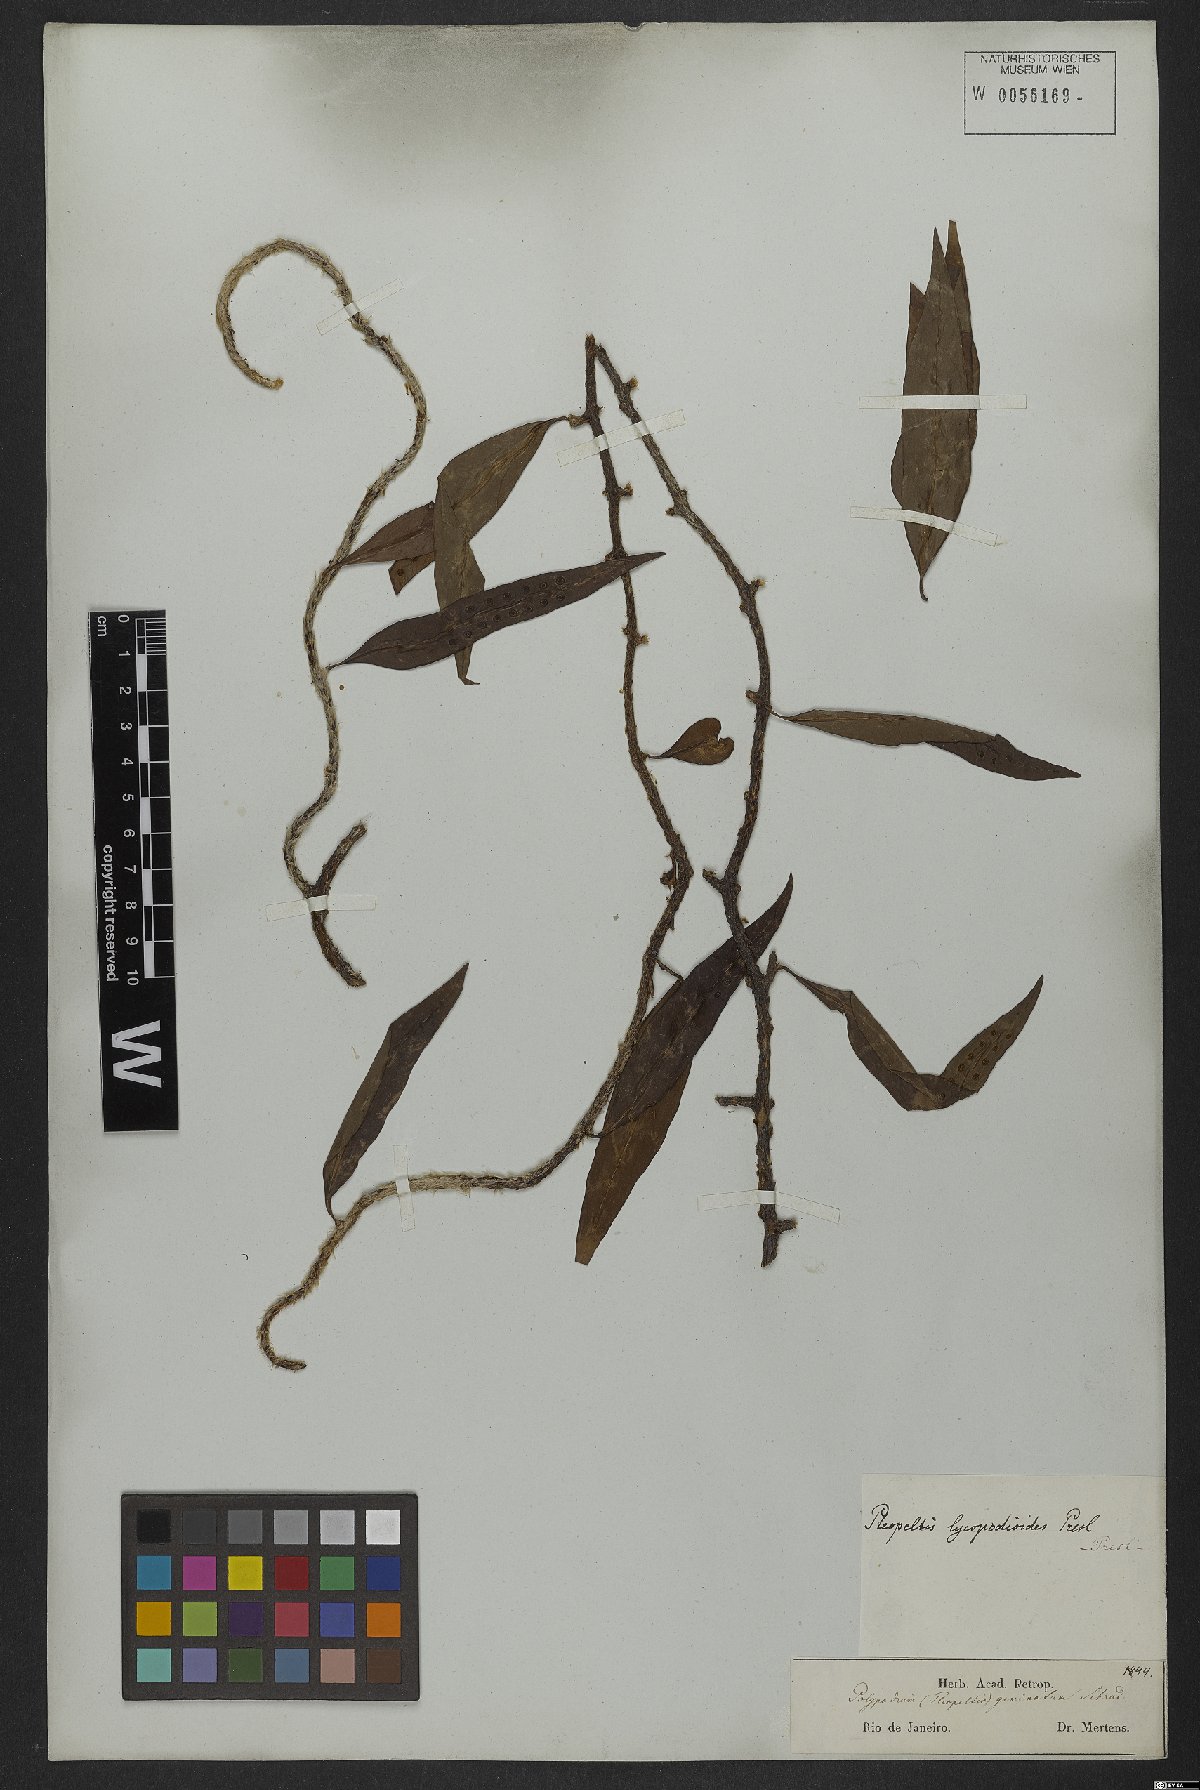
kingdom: Plantae
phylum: Tracheophyta
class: Polypodiopsida
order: Polypodiales
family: Polypodiaceae
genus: Microgramma
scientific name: Microgramma lycopodioides
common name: Bastard catclaw
